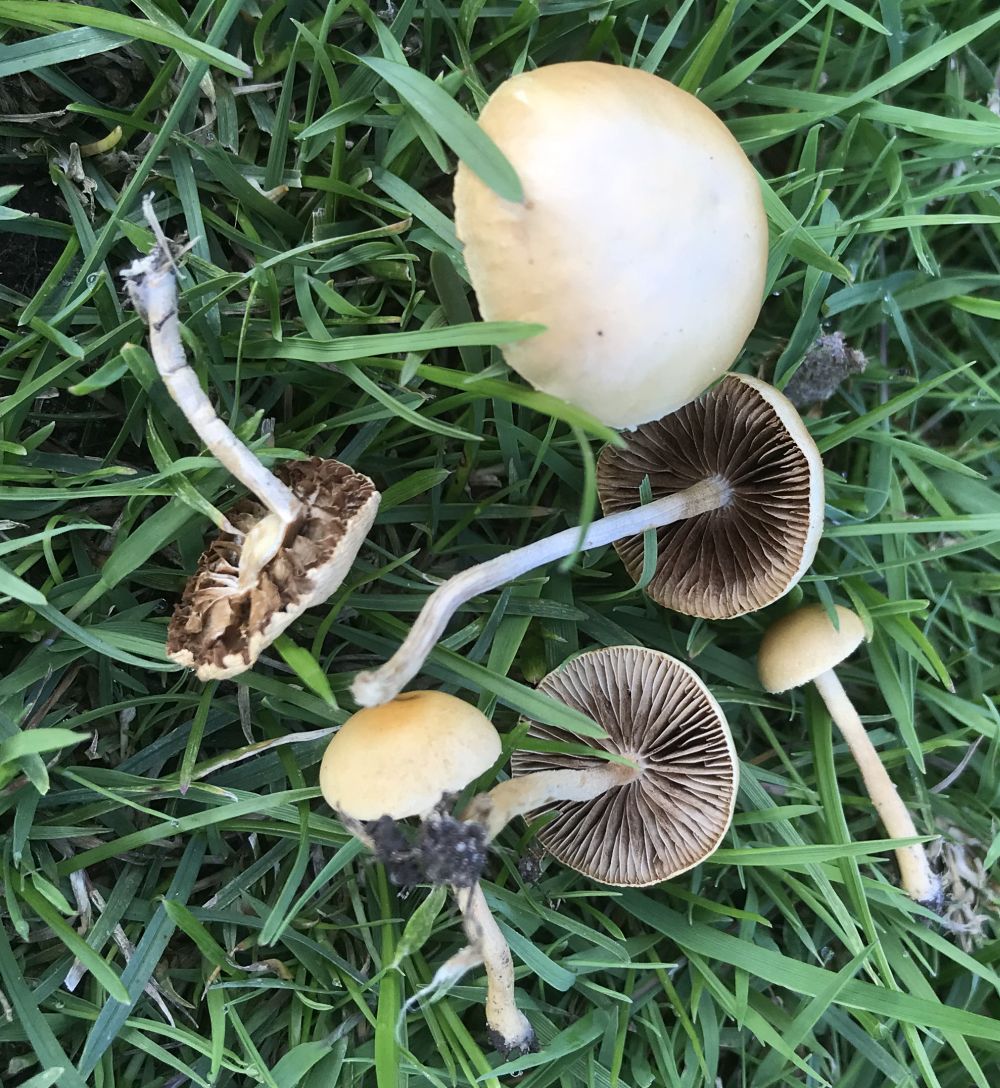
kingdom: Fungi
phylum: Basidiomycota
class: Agaricomycetes
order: Agaricales
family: Strophariaceae
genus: Agrocybe
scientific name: Agrocybe pediades
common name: almindelig agerhat
